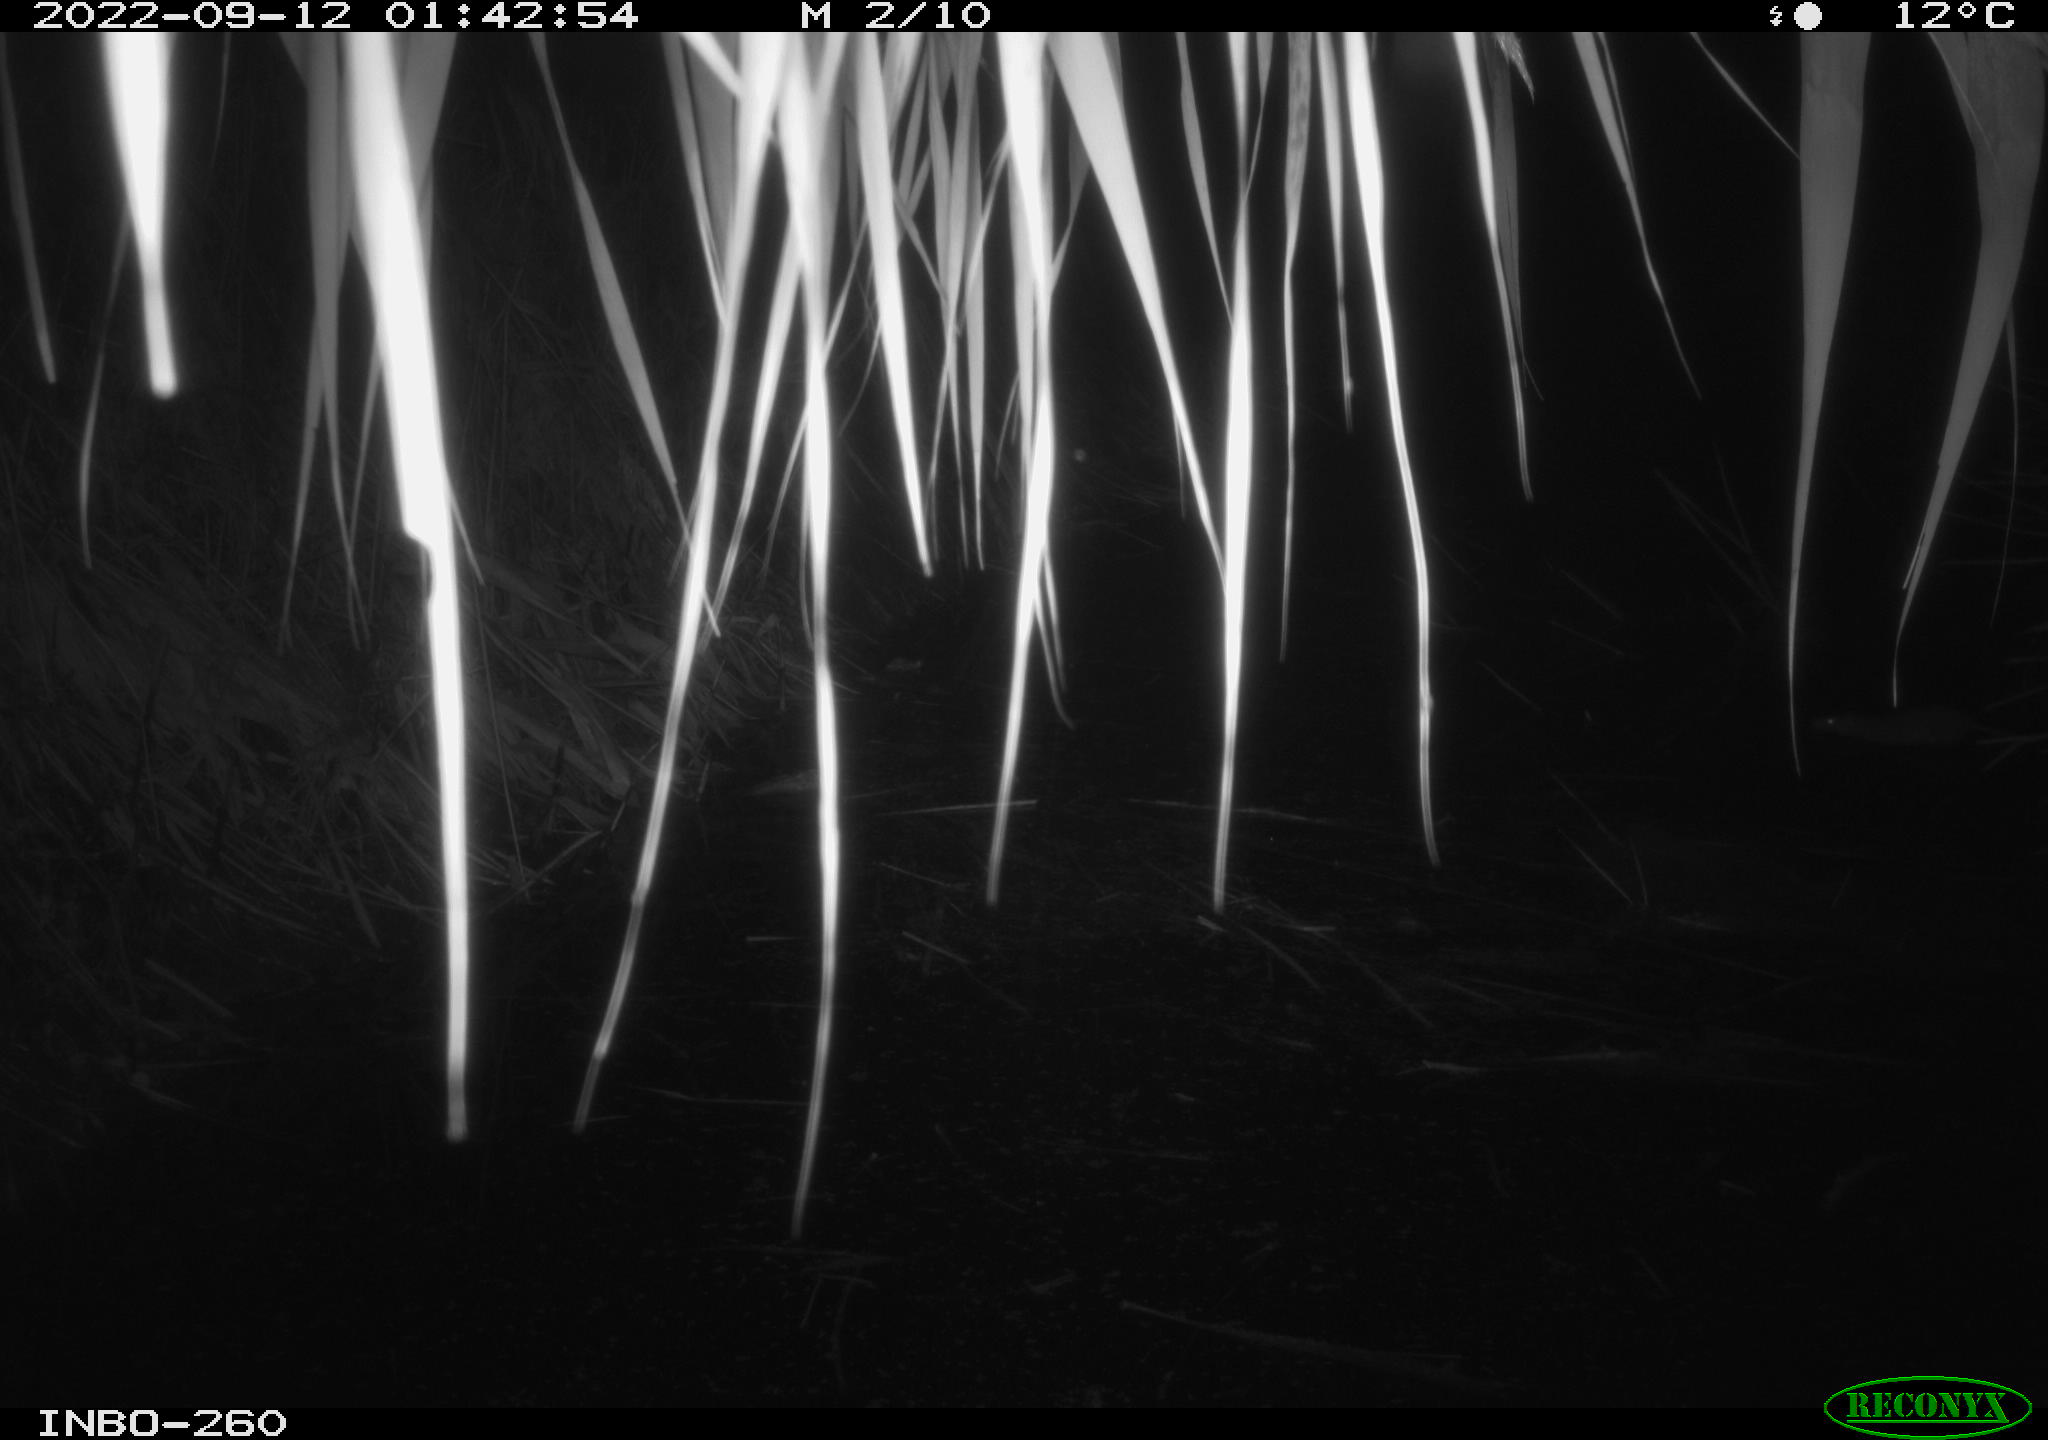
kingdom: Animalia
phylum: Chordata
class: Mammalia
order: Rodentia
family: Muridae
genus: Rattus
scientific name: Rattus norvegicus
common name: Brown rat
